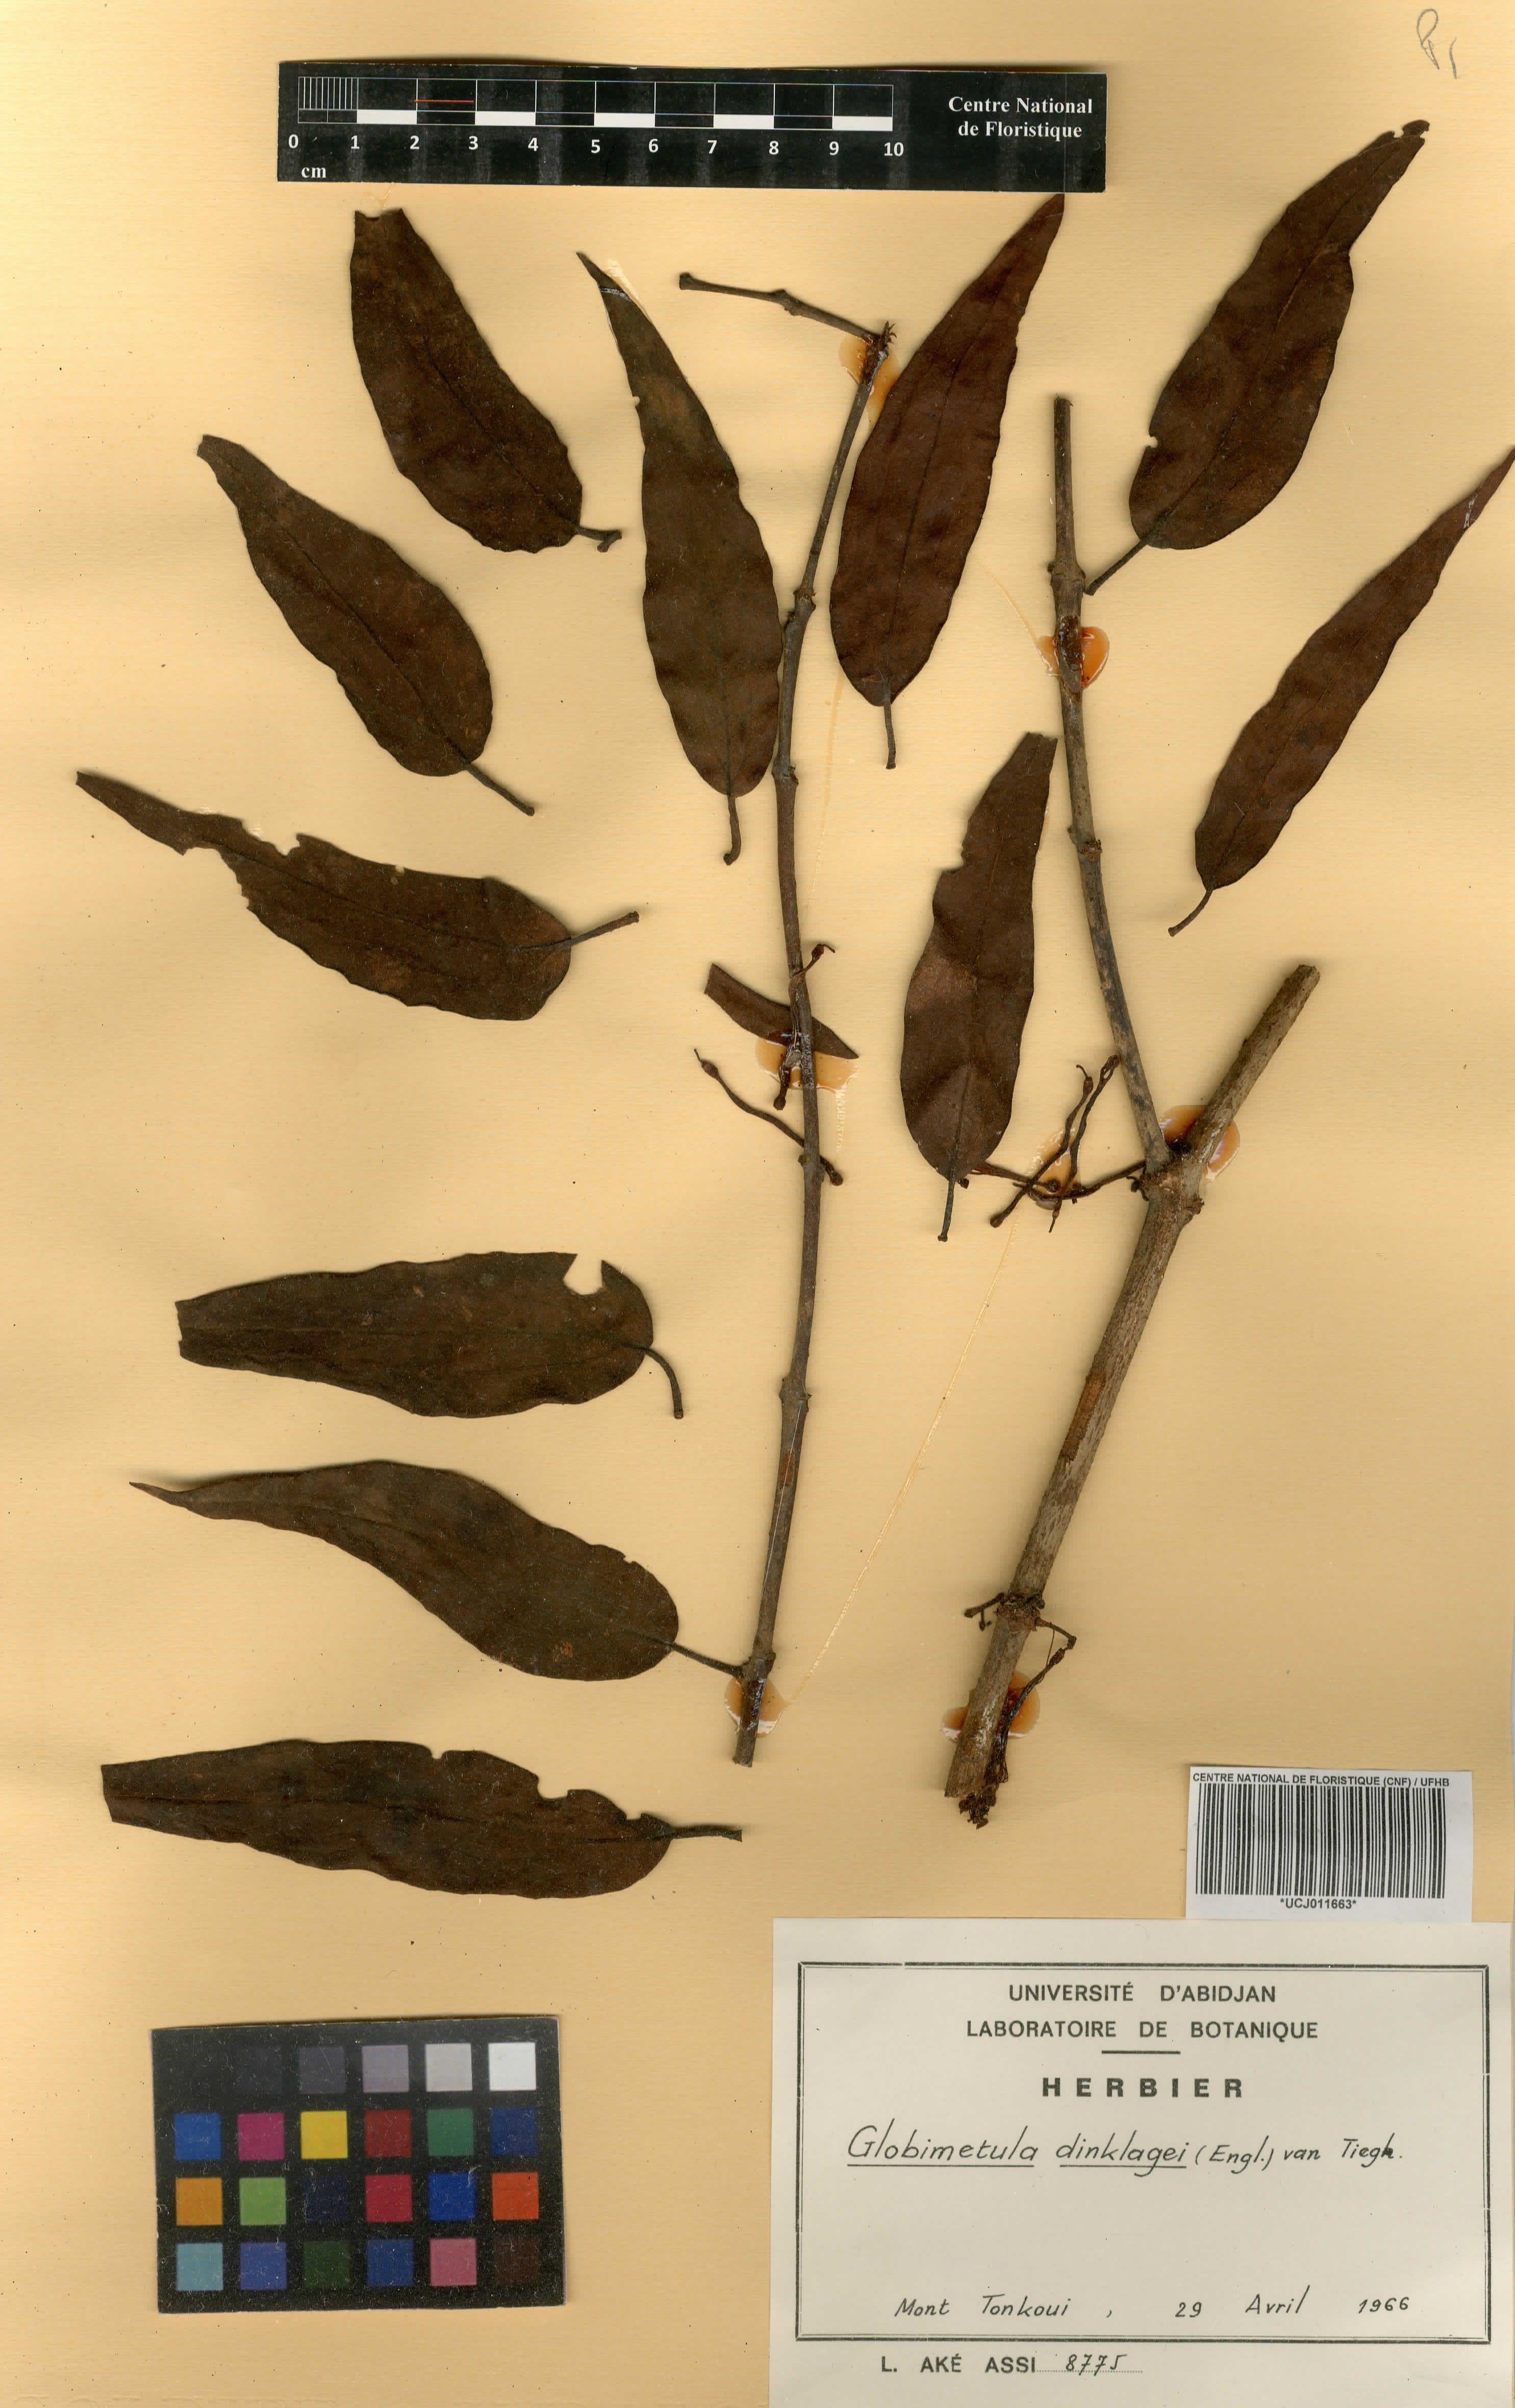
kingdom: Plantae
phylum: Tracheophyta
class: Magnoliopsida
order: Santalales
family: Loranthaceae
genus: Globimetula
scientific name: Globimetula dinklagei
